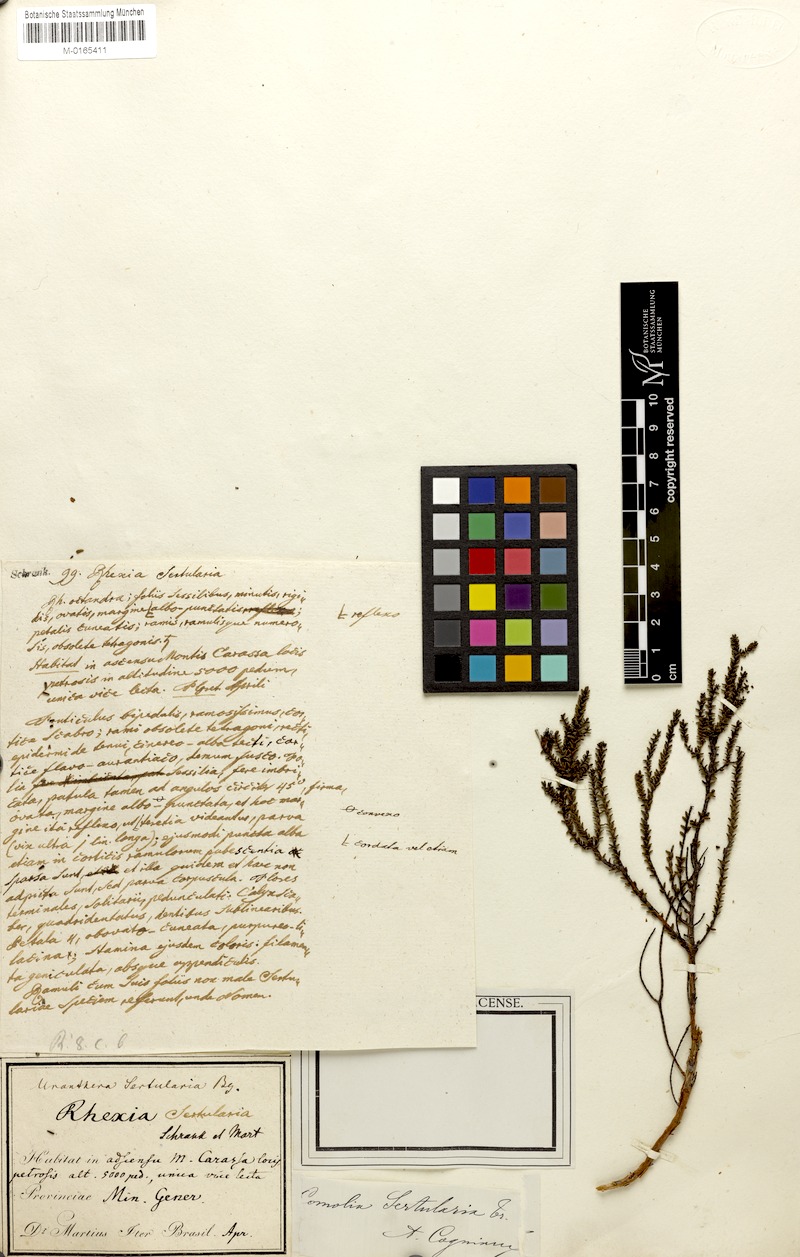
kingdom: Plantae
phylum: Tracheophyta
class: Magnoliopsida
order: Myrtales
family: Melastomataceae
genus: Fritzschia
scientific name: Fritzschia sertularia
